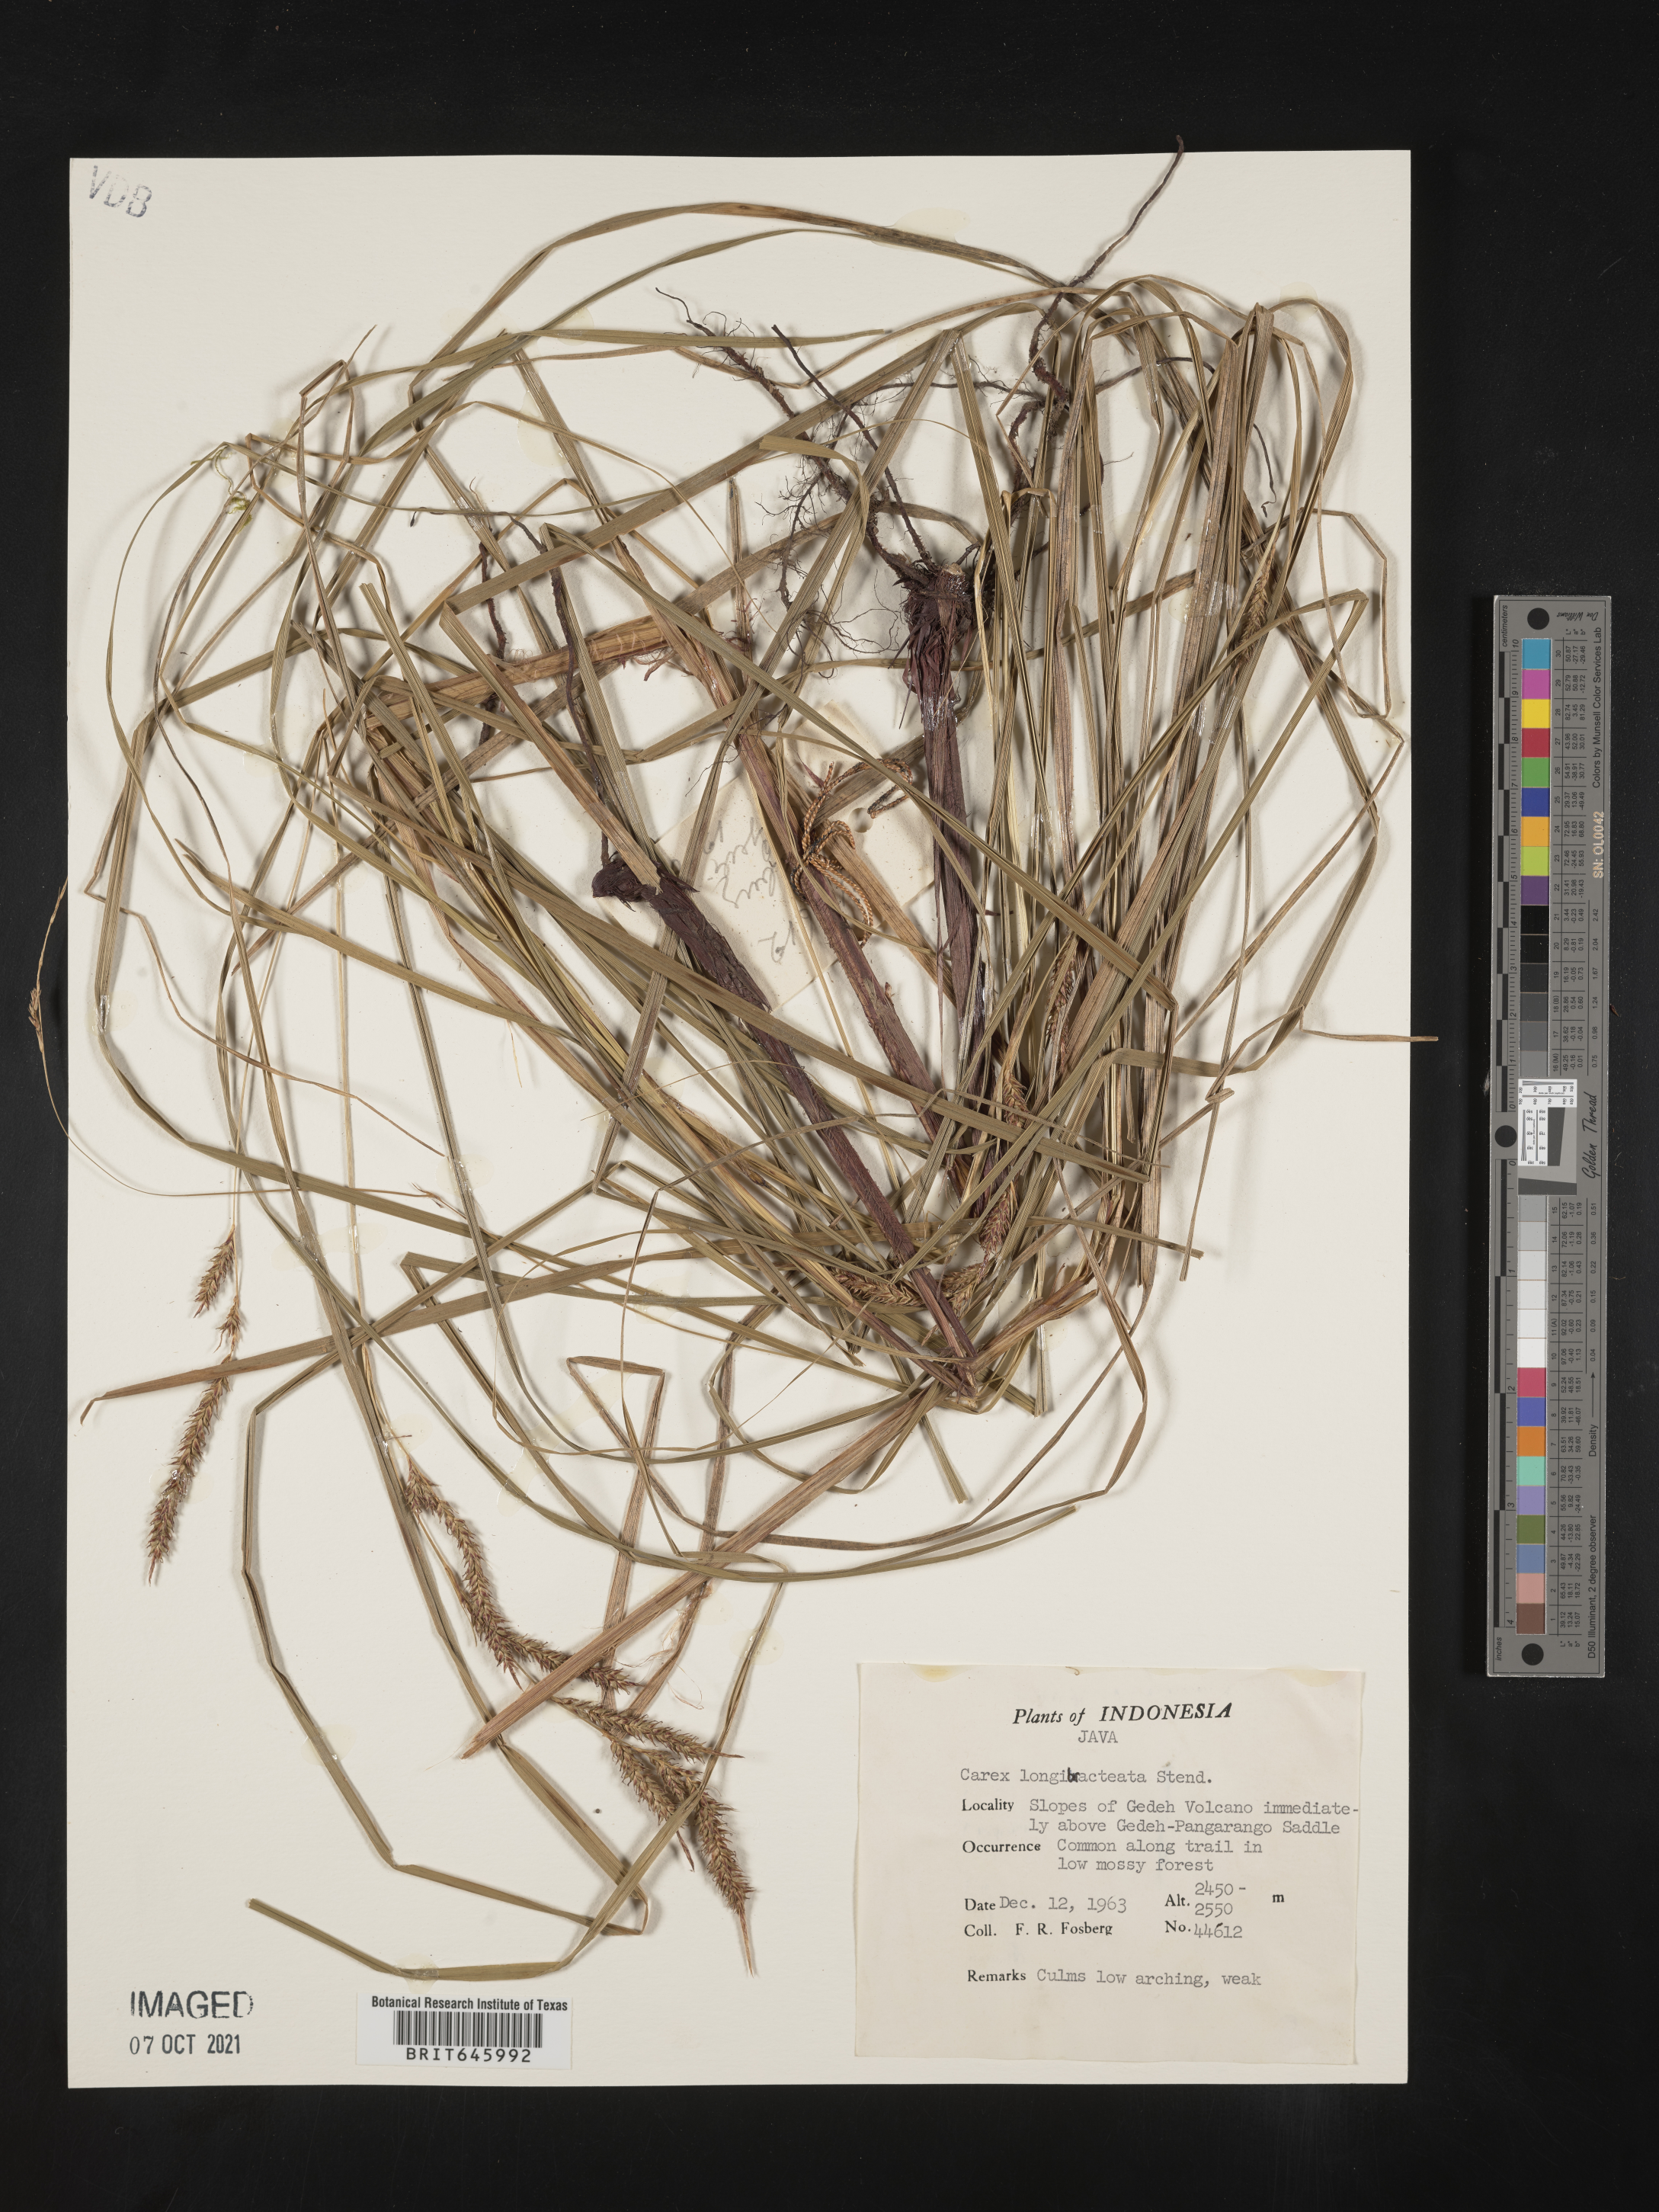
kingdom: Plantae
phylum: Tracheophyta
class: Liliopsida
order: Poales
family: Cyperaceae
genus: Carex
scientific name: Carex longibracteata
